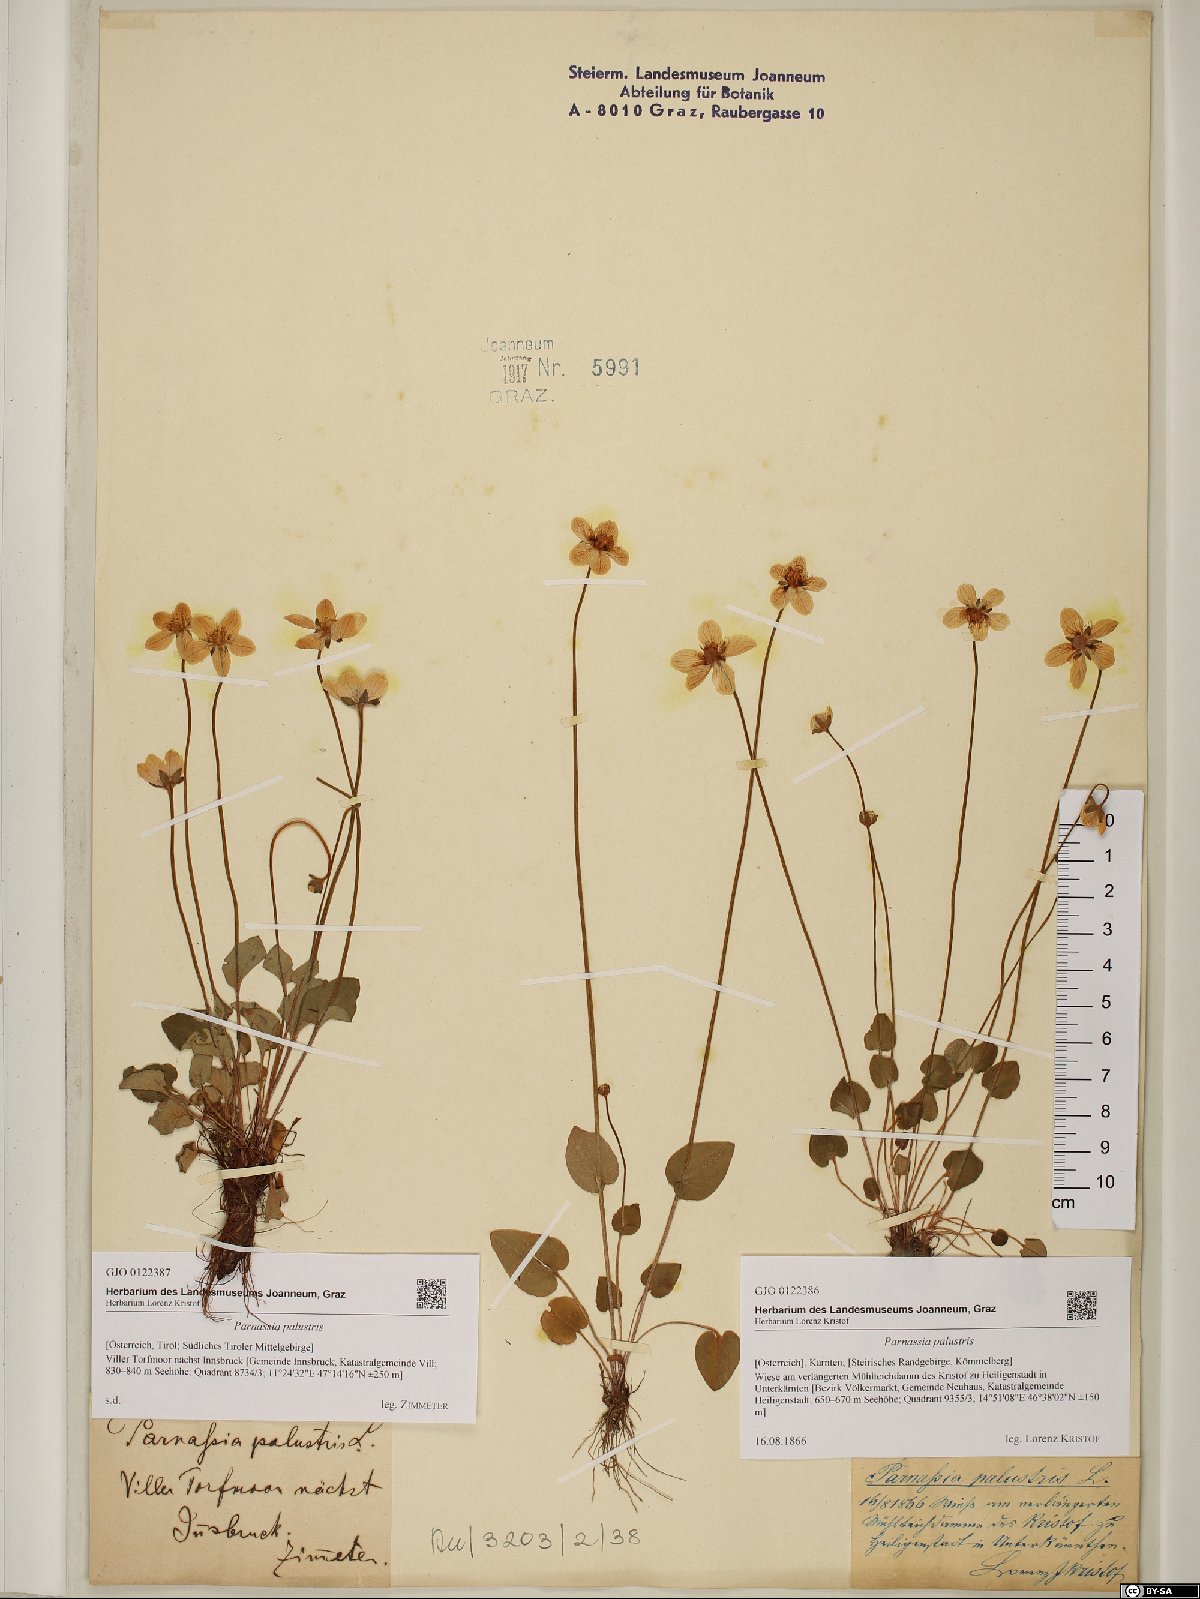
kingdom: Plantae
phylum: Tracheophyta
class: Magnoliopsida
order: Celastrales
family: Parnassiaceae
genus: Parnassia
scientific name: Parnassia palustris
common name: Grass-of-parnassus
